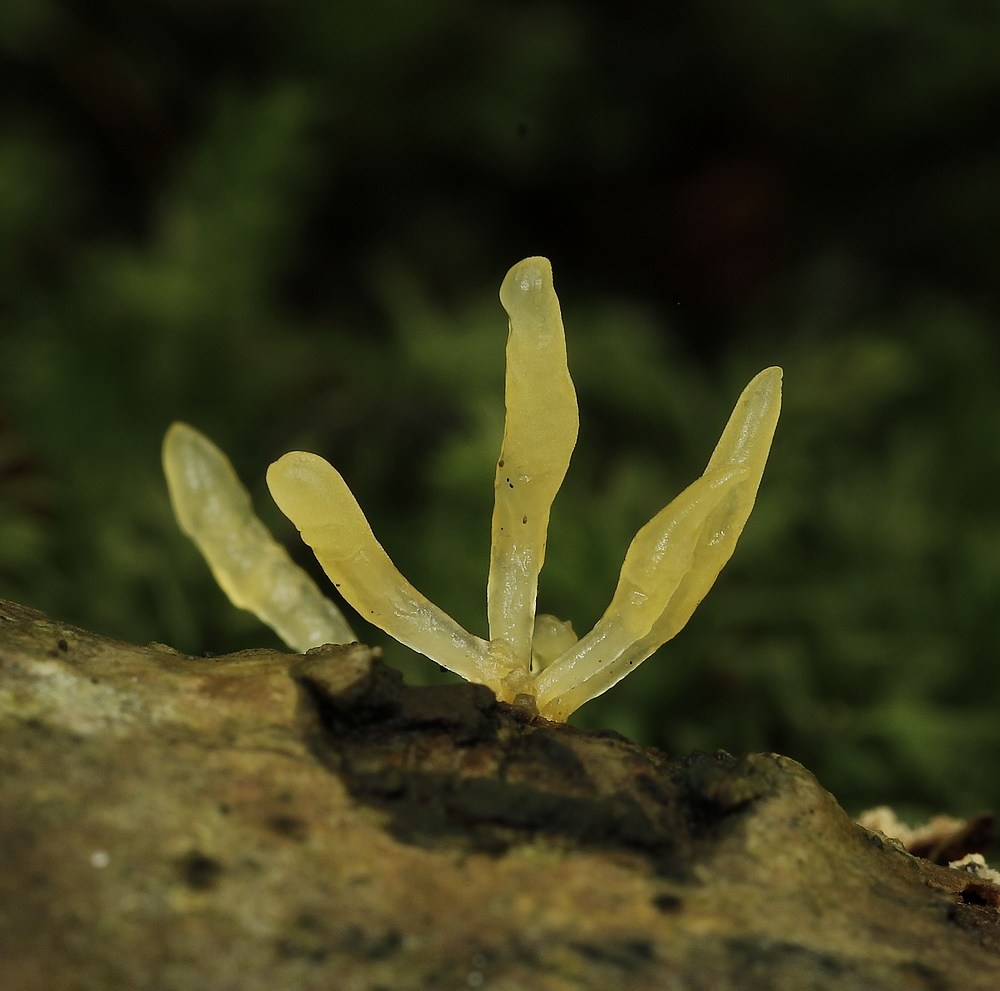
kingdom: Fungi
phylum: Basidiomycota
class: Dacrymycetes
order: Dacrymycetales
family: Dacrymycetaceae
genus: Calocera
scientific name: Calocera cornea
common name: liden guldgaffel
